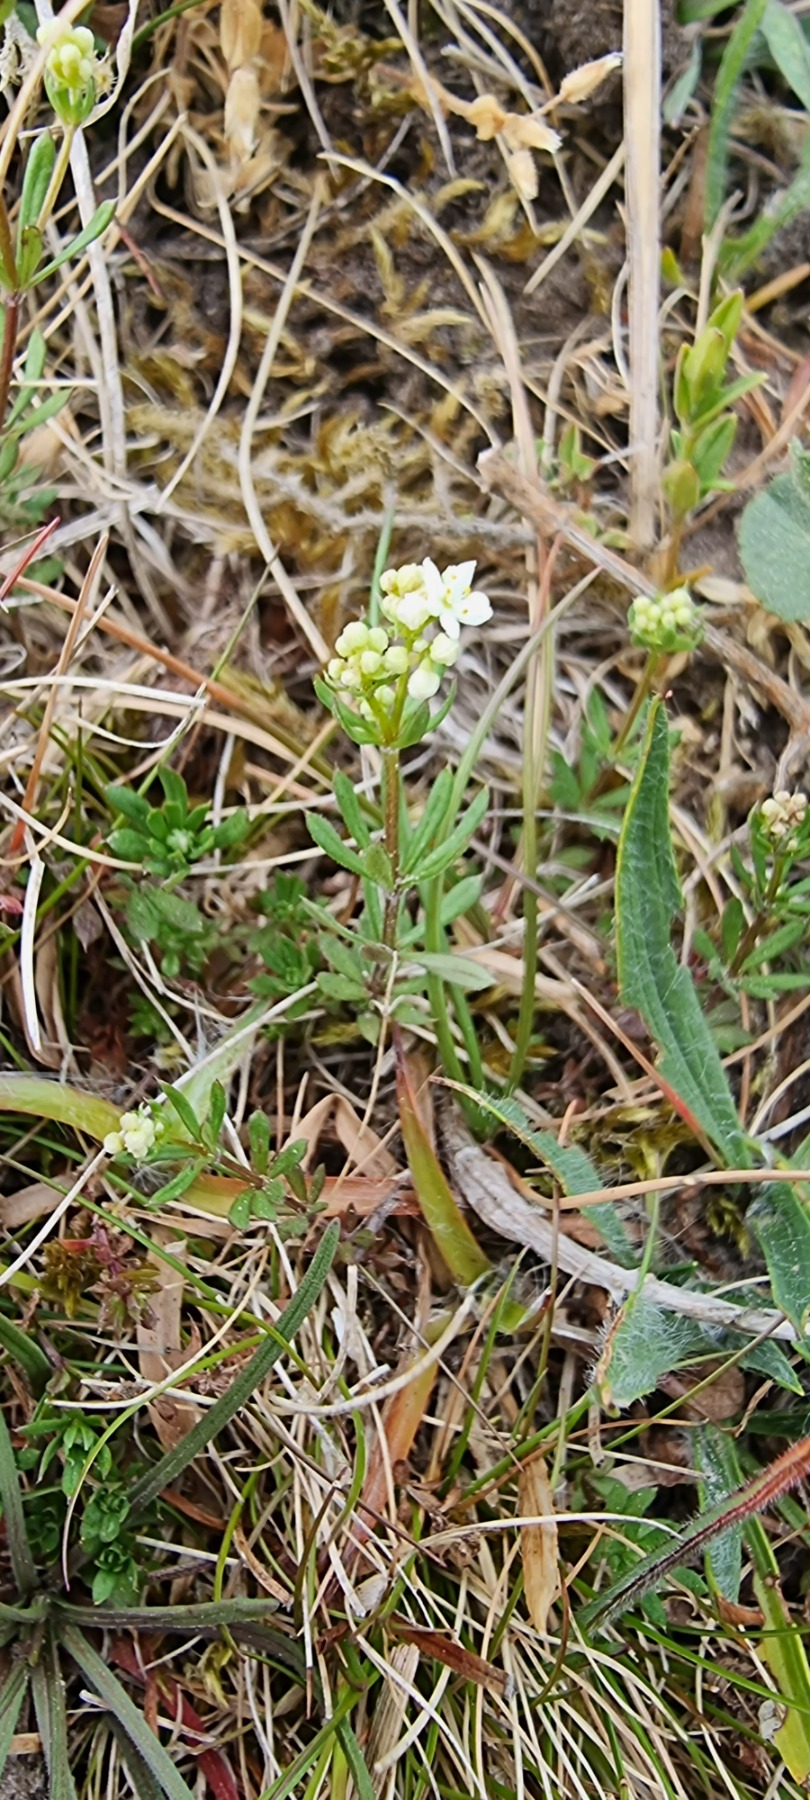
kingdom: Plantae
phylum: Tracheophyta
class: Magnoliopsida
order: Gentianales
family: Rubiaceae
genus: Galium
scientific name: Galium saxatile
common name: Lyng-snerre
